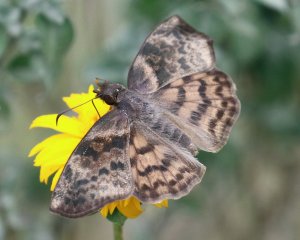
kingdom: Animalia
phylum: Arthropoda
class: Insecta
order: Lepidoptera
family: Hesperiidae
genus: Timochares
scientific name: Timochares ruptifasciata
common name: Brown-banded Skipper
